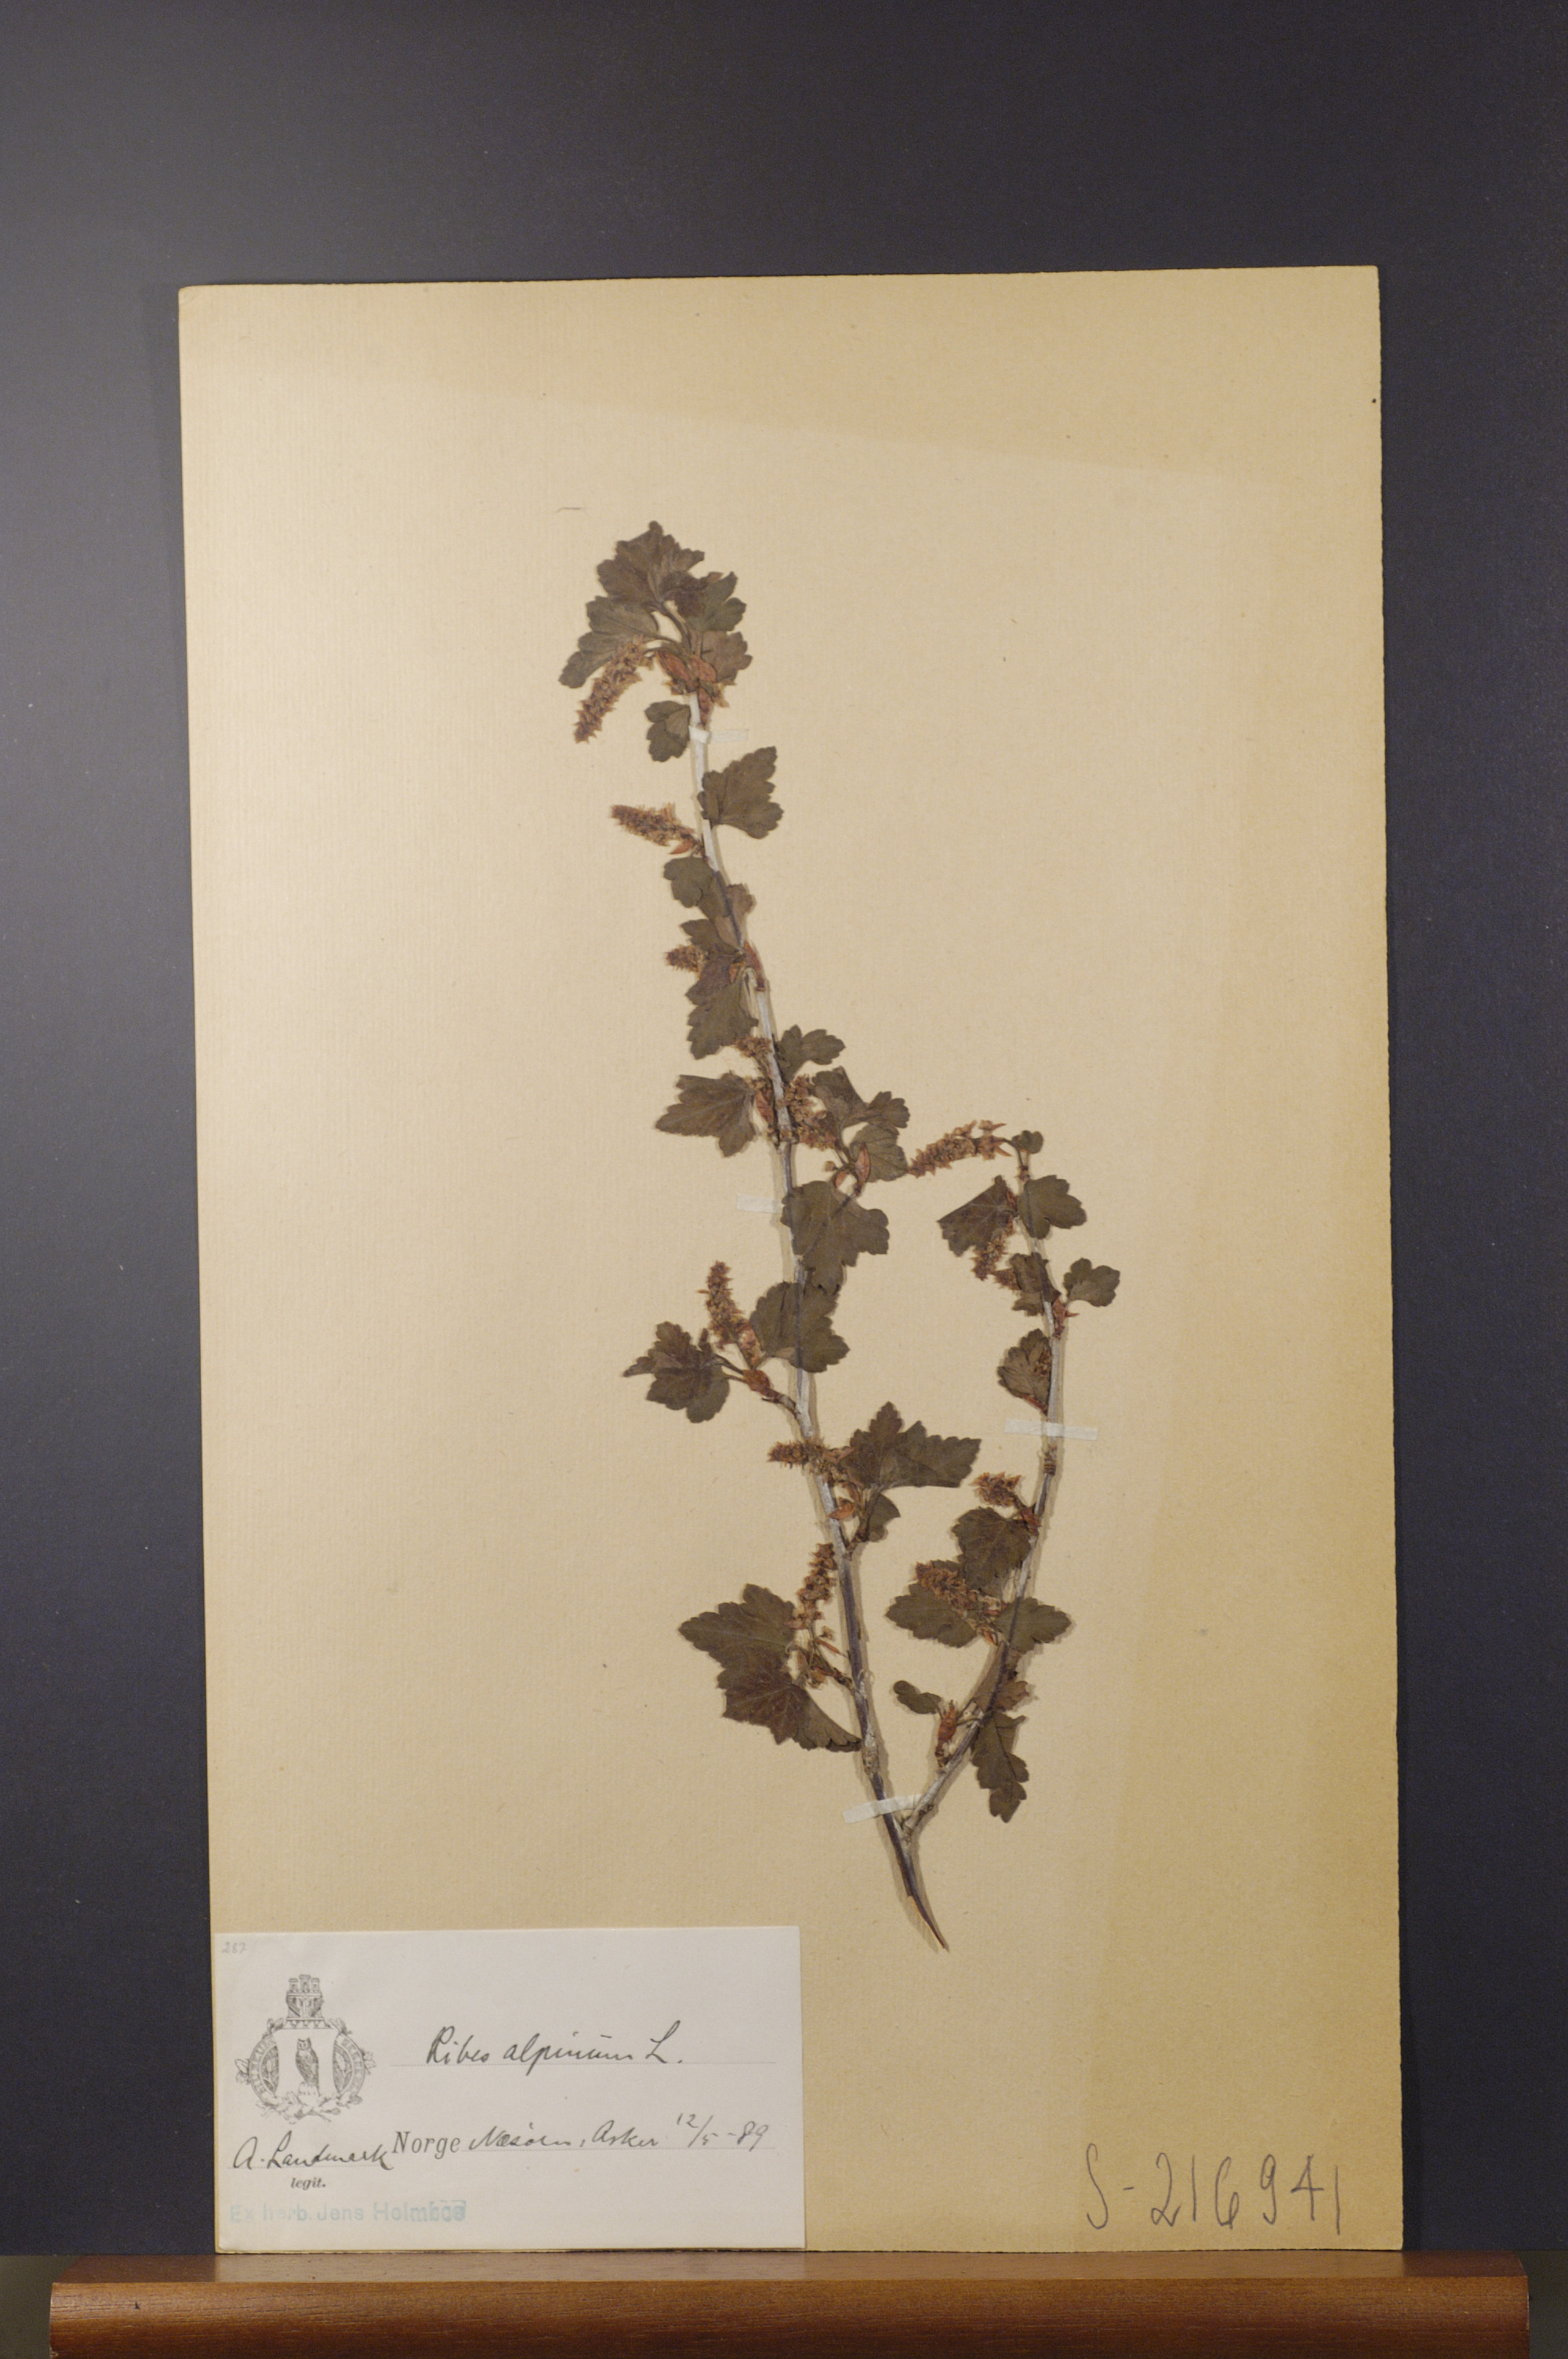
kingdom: Plantae
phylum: Tracheophyta
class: Magnoliopsida
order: Saxifragales
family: Grossulariaceae
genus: Ribes
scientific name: Ribes alpinum
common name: Alpine currant
